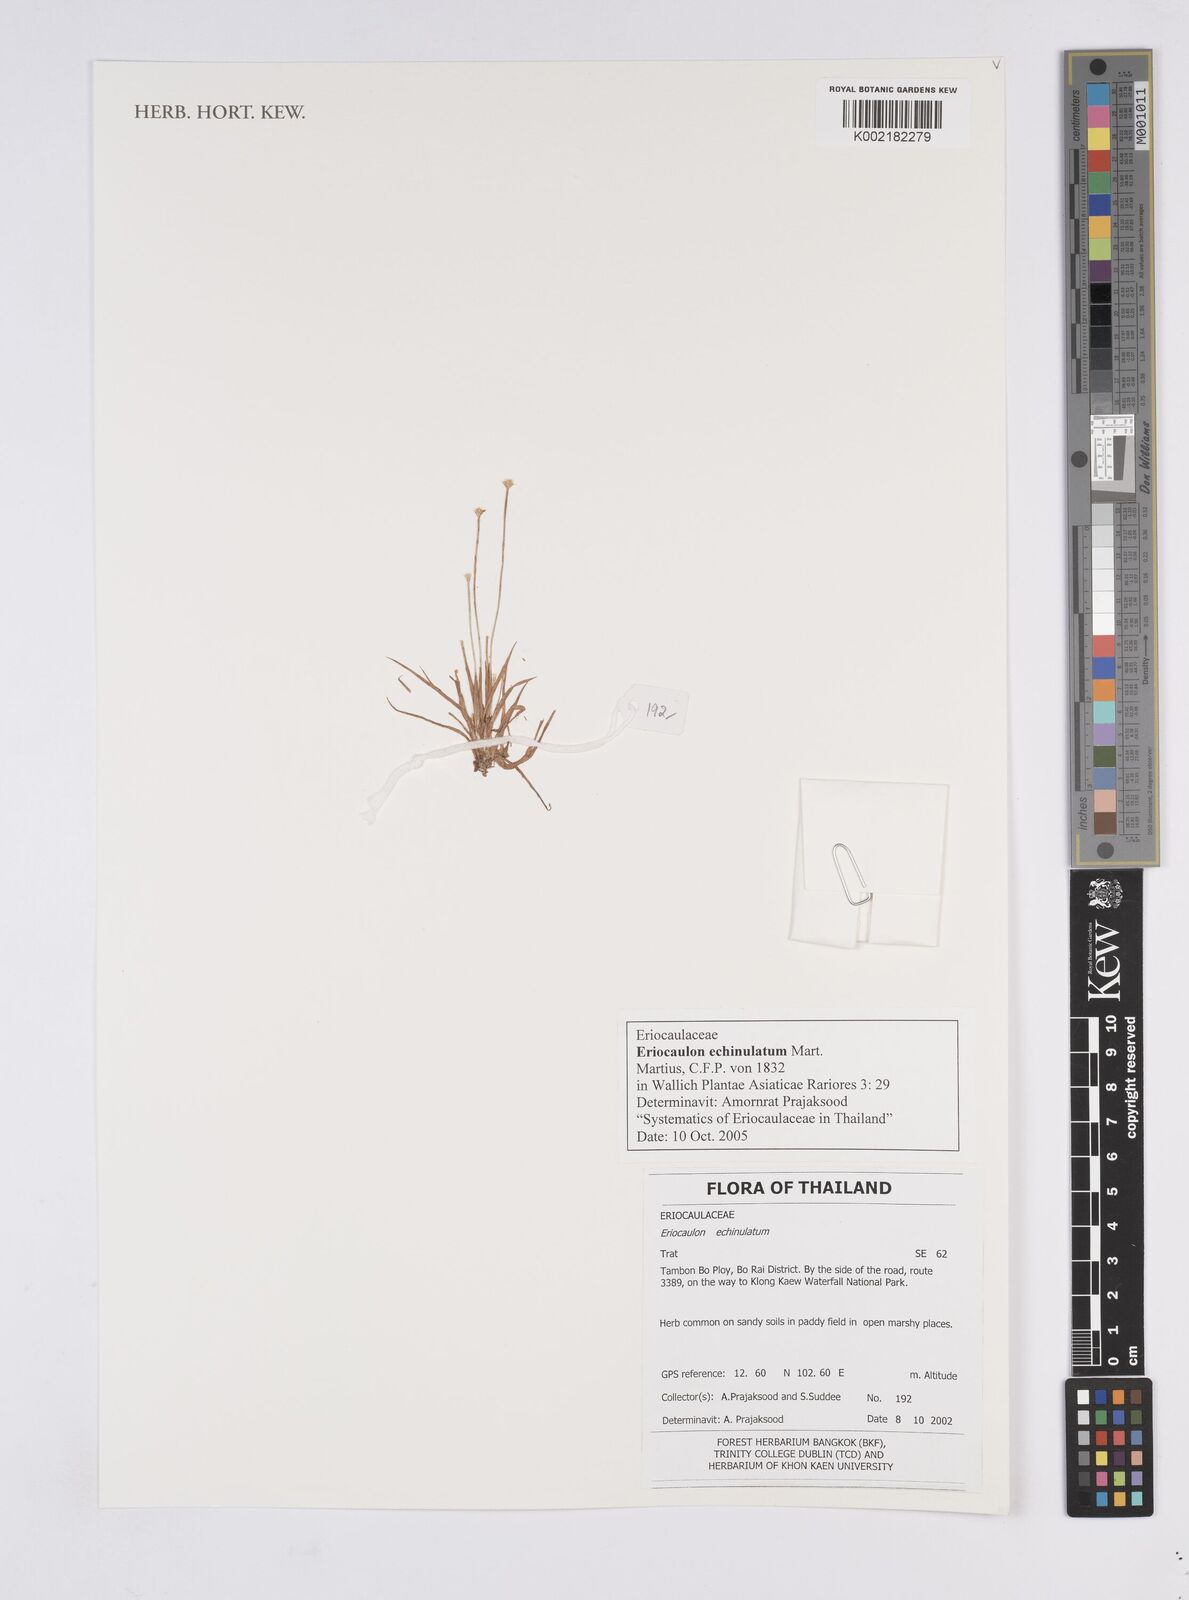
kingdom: Plantae
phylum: Tracheophyta
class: Liliopsida
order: Poales
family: Eriocaulaceae
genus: Eriocaulon
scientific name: Eriocaulon echinulatum
